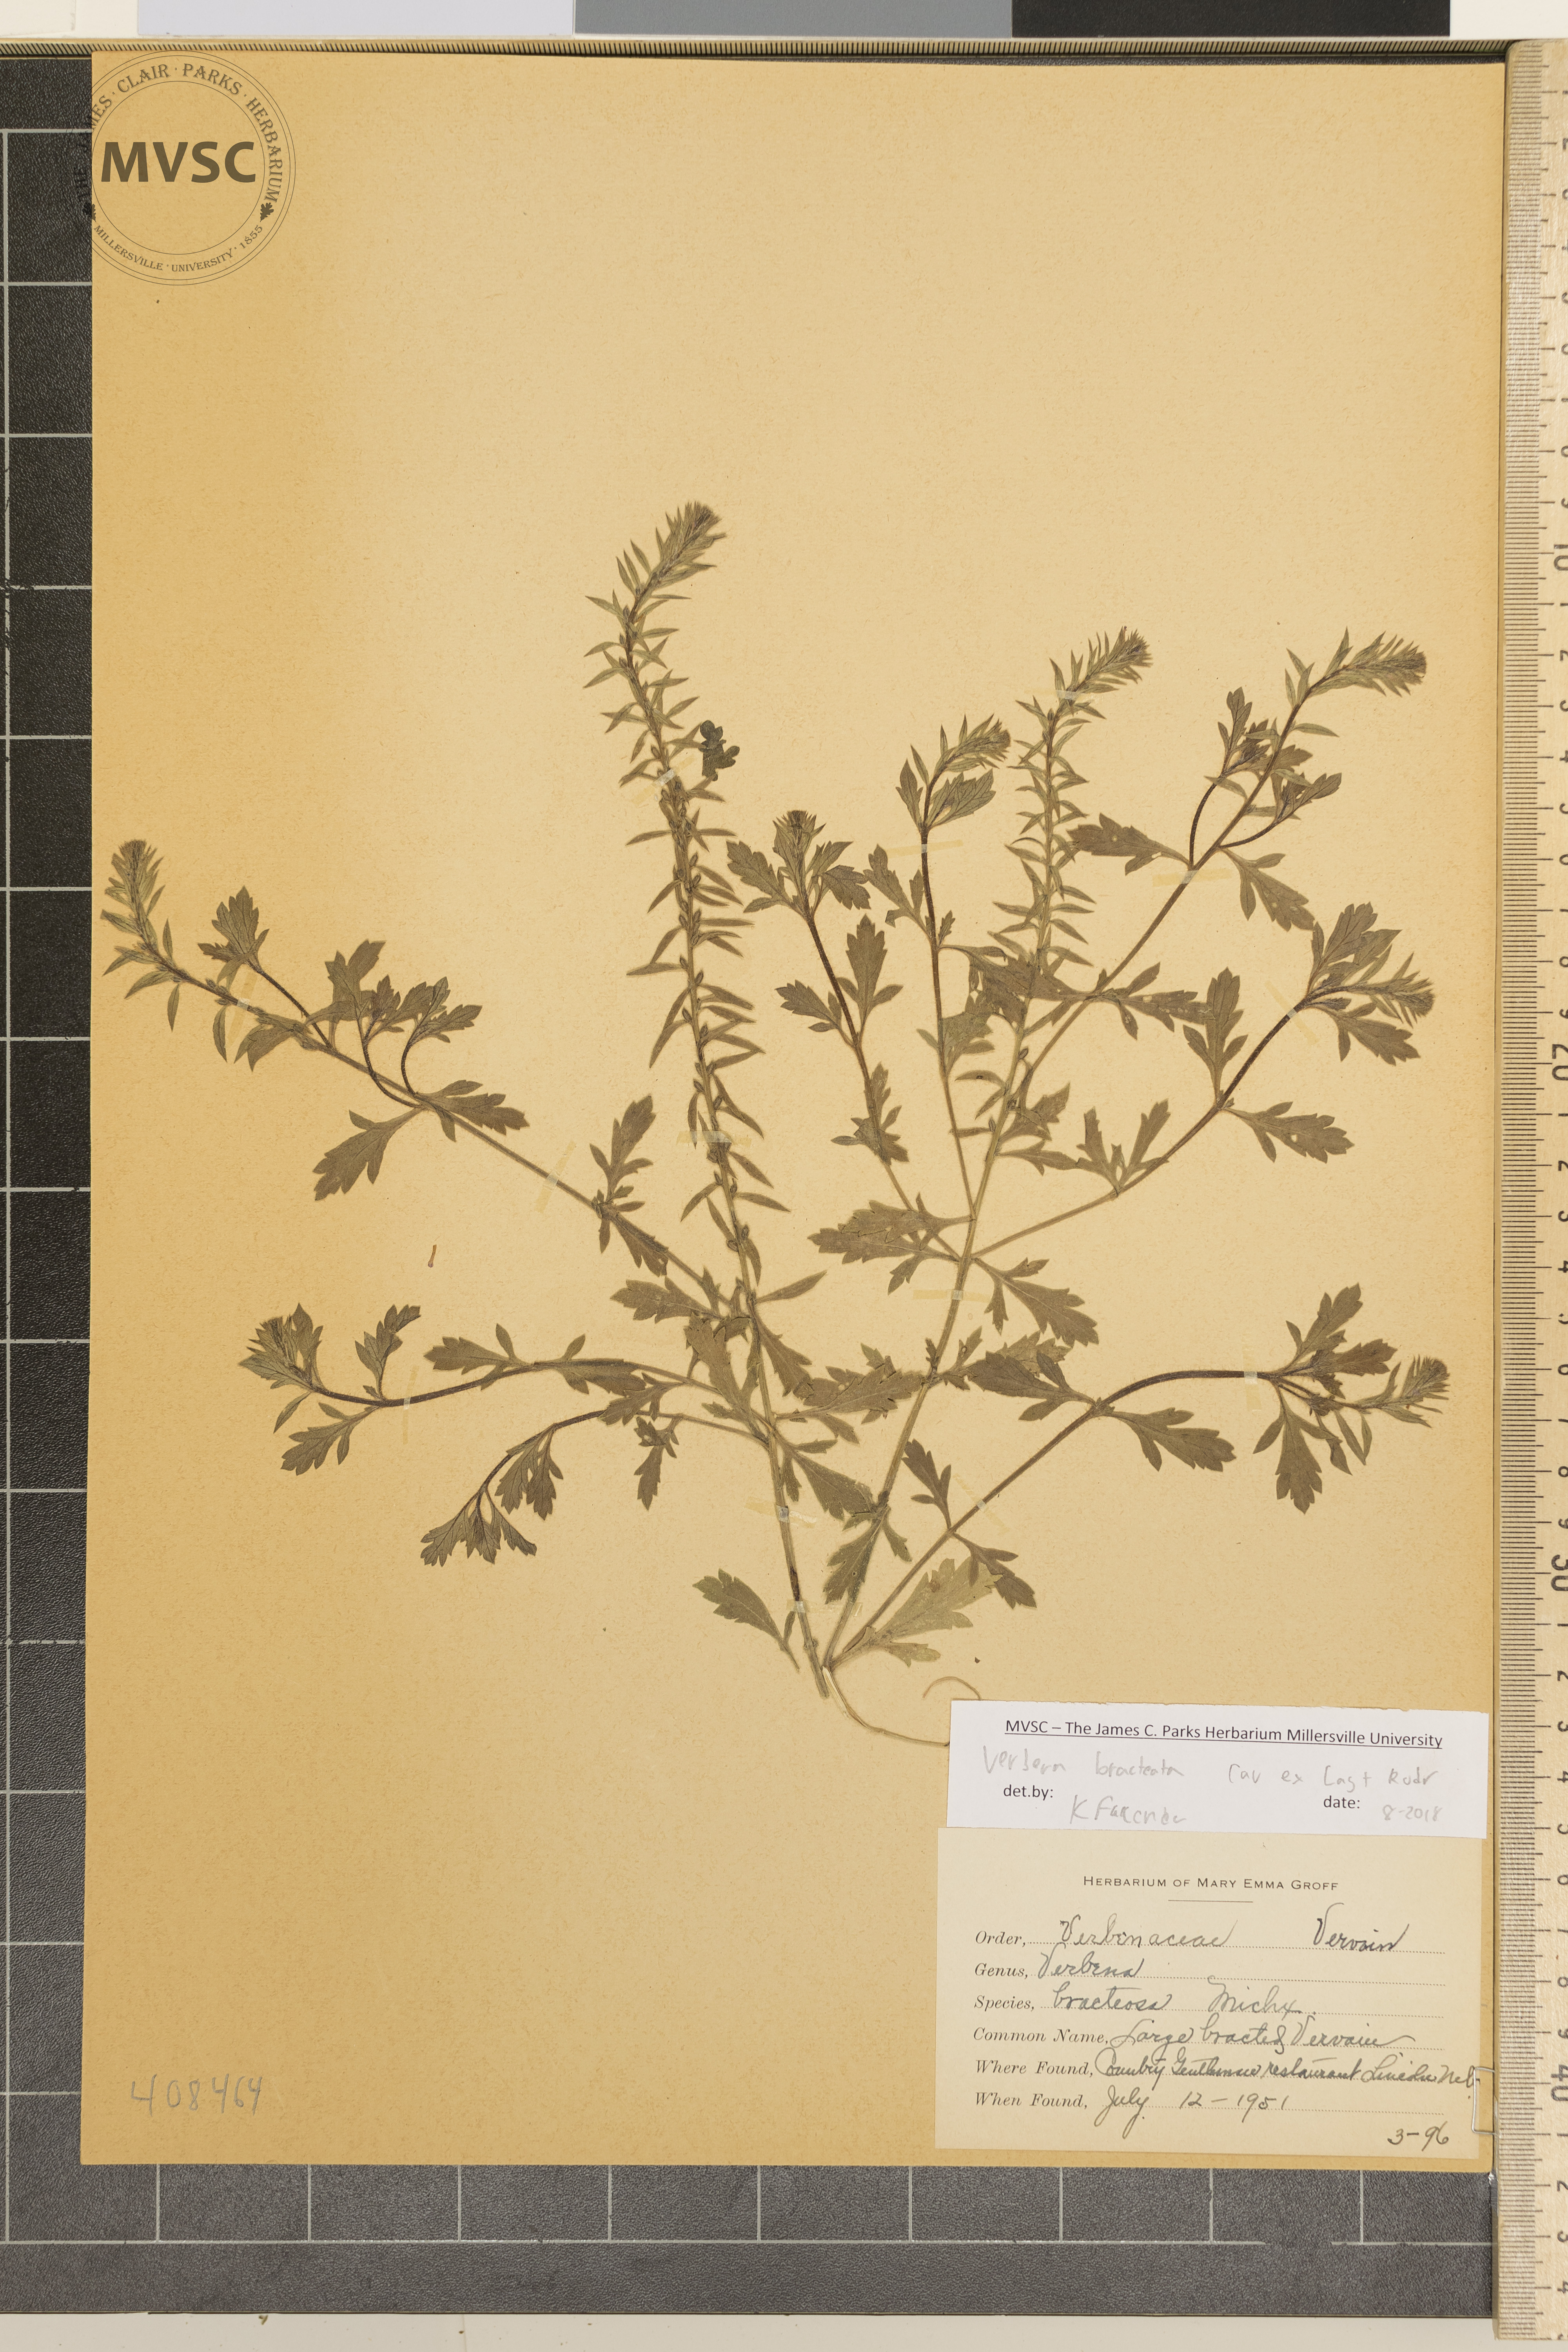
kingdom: Plantae
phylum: Tracheophyta
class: Magnoliopsida
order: Lamiales
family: Verbenaceae
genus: Verbena
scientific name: Verbena bracteata
